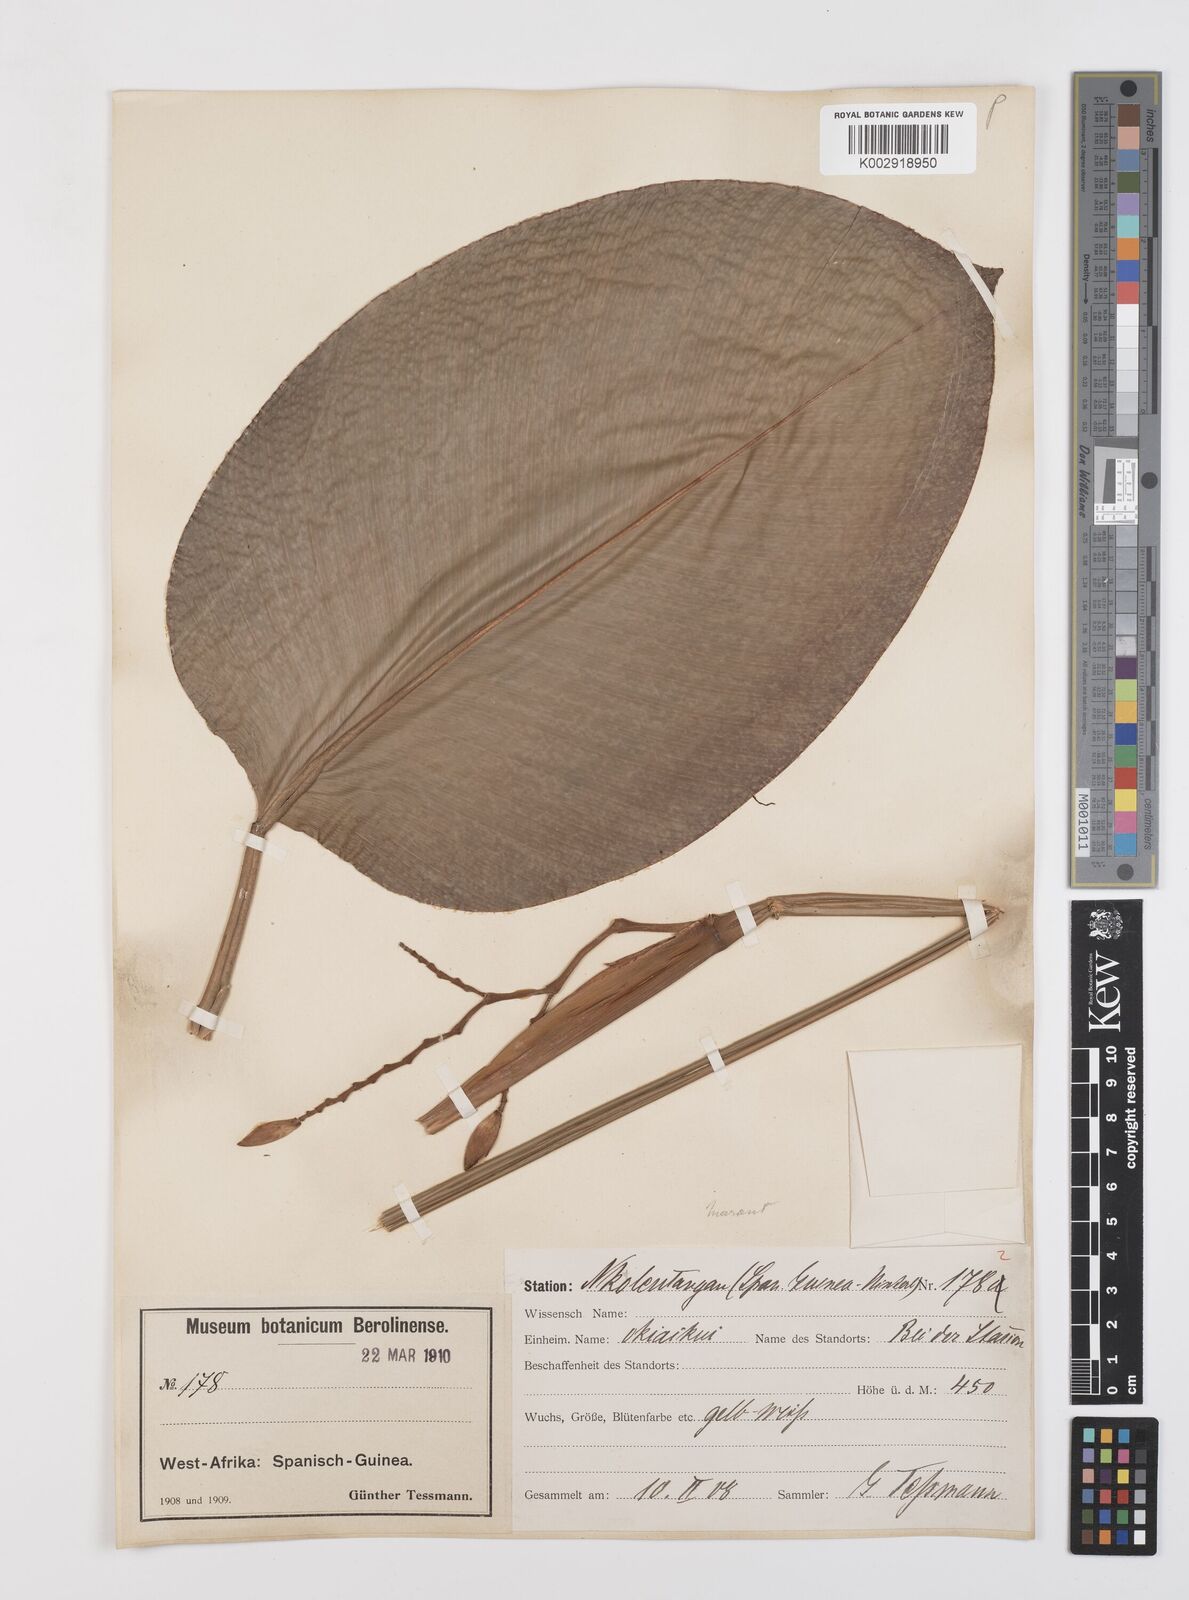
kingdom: Plantae
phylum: Tracheophyta
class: Liliopsida
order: Zingiberales
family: Marantaceae
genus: Megaphrynium
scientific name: Megaphrynium trichogynum
